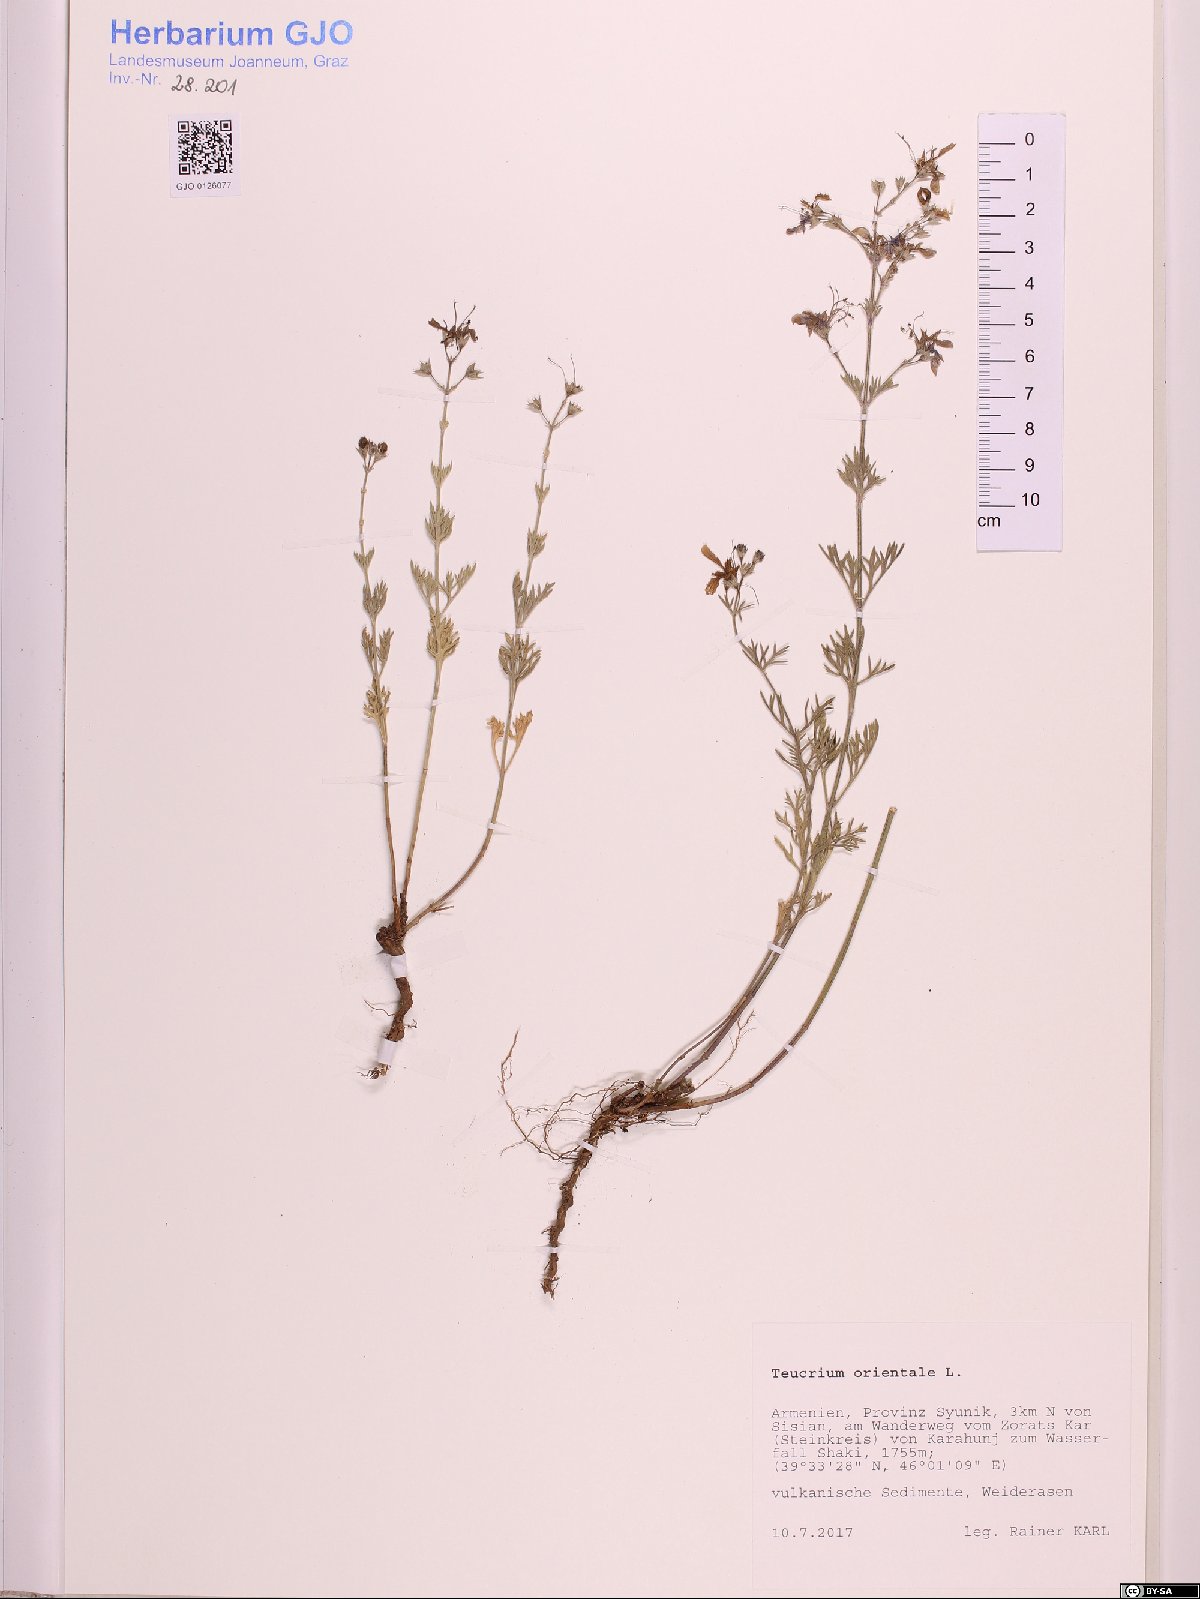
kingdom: Plantae
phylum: Tracheophyta
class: Magnoliopsida
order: Lamiales
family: Lamiaceae
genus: Teucrium
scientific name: Teucrium orientale
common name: Oriental germander
